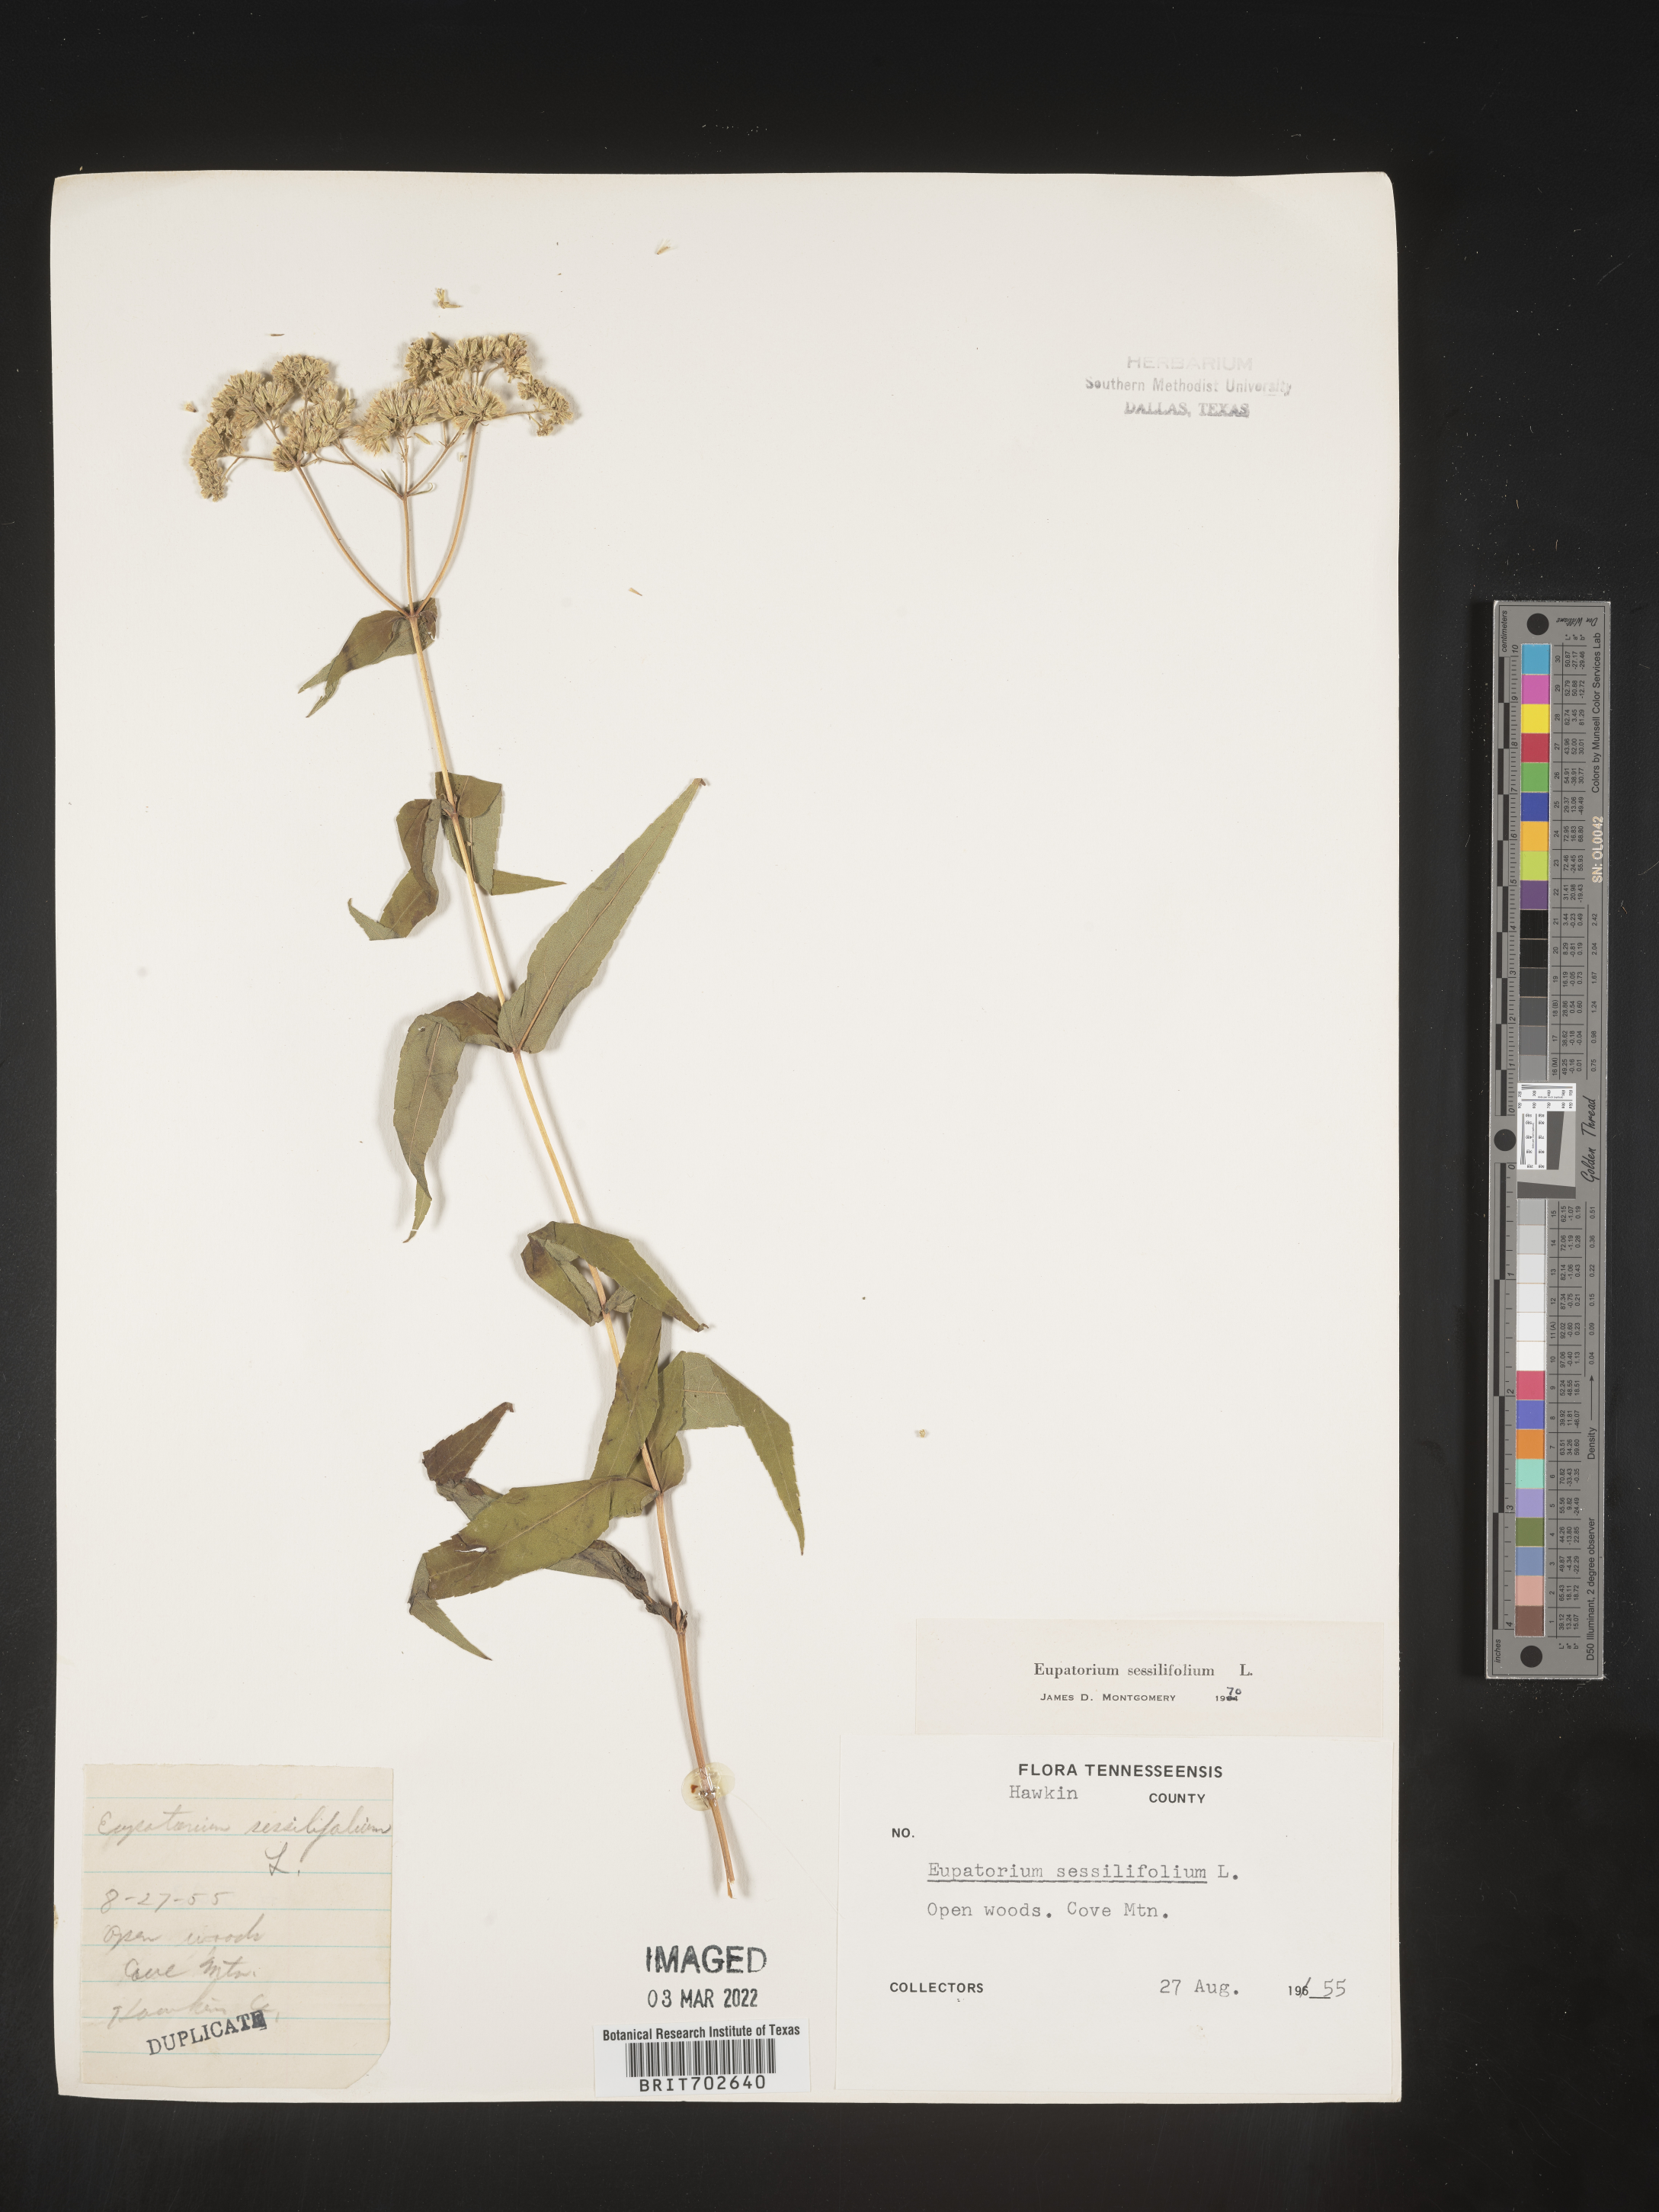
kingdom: Plantae
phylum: Tracheophyta
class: Magnoliopsida
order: Asterales
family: Asteraceae
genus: Eupatorium
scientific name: Eupatorium sessilifolium
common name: Upland boneset
